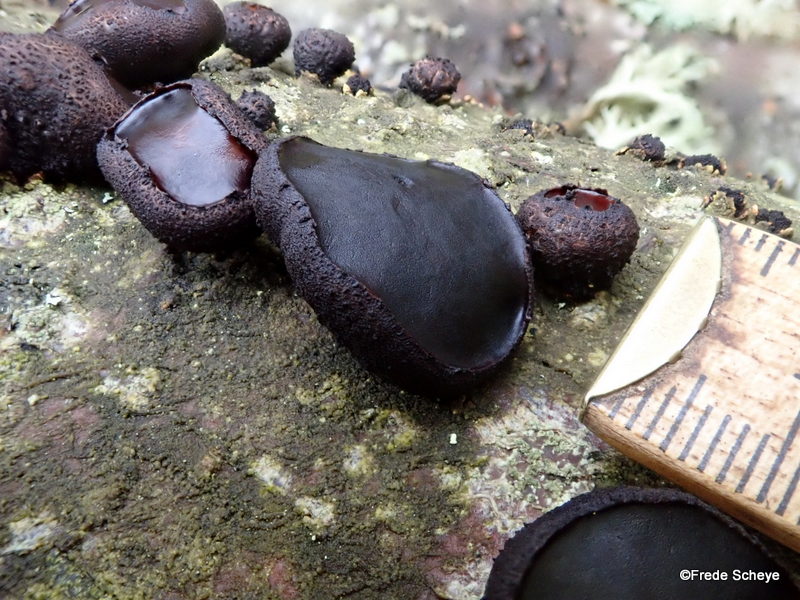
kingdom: Fungi
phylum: Ascomycota
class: Leotiomycetes
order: Phacidiales
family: Phacidiaceae
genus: Bulgaria
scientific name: Bulgaria inquinans
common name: afsmittende topsvamp
